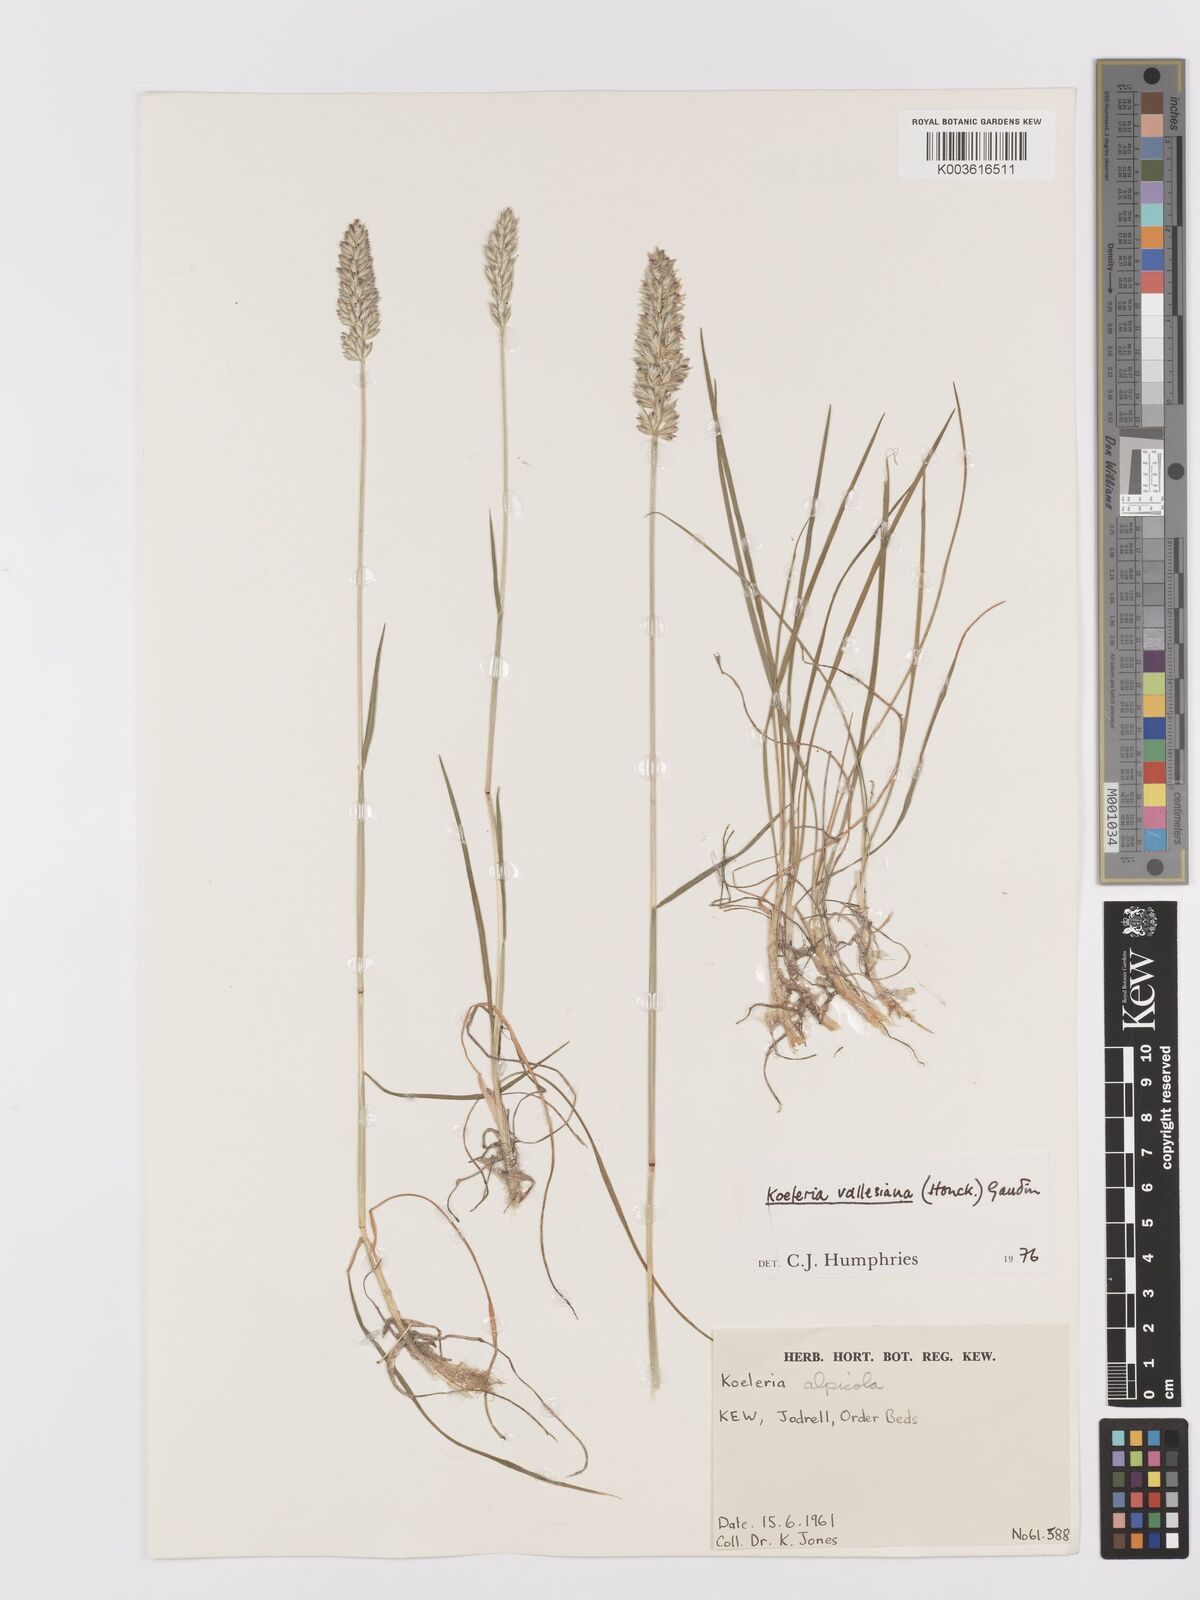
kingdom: Plantae
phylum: Tracheophyta
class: Liliopsida
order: Poales
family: Poaceae
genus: Koeleria
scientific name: Koeleria vallesiana
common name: Somerset hair-grass
